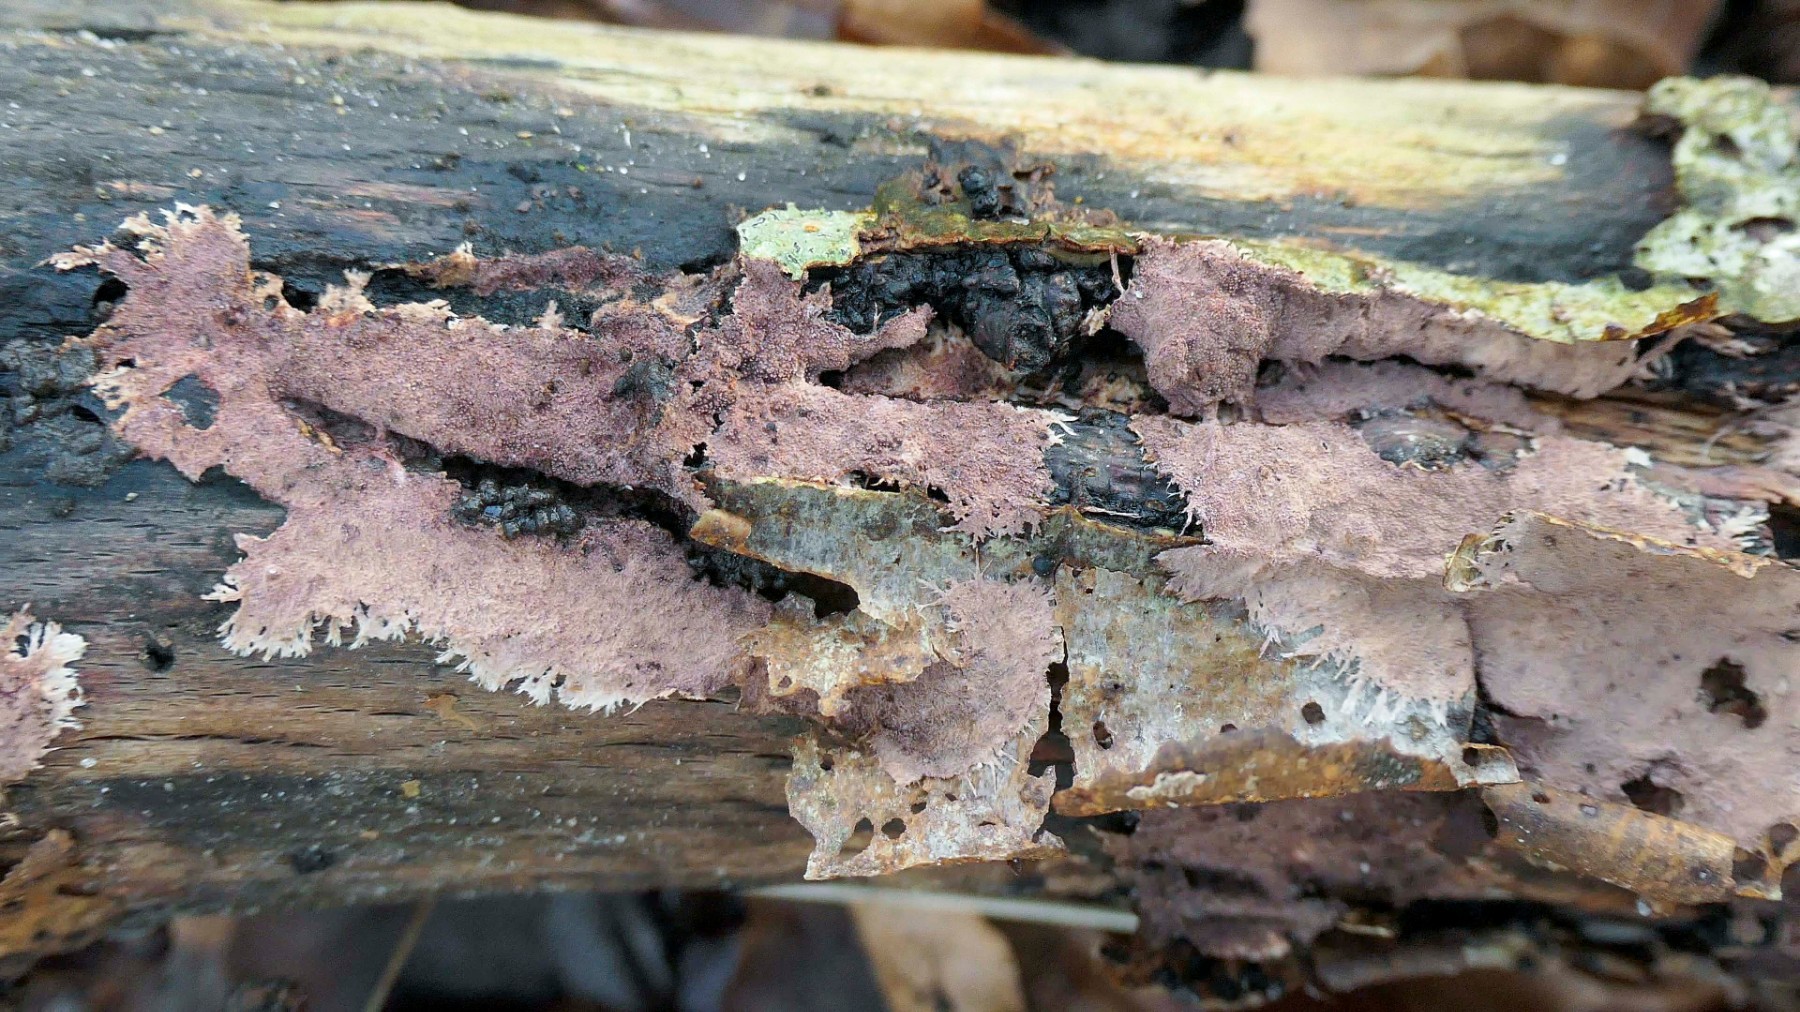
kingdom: Fungi
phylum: Basidiomycota
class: Agaricomycetes
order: Polyporales
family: Steccherinaceae
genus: Steccherinum
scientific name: Steccherinum fimbriatum
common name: trådet skønpig
